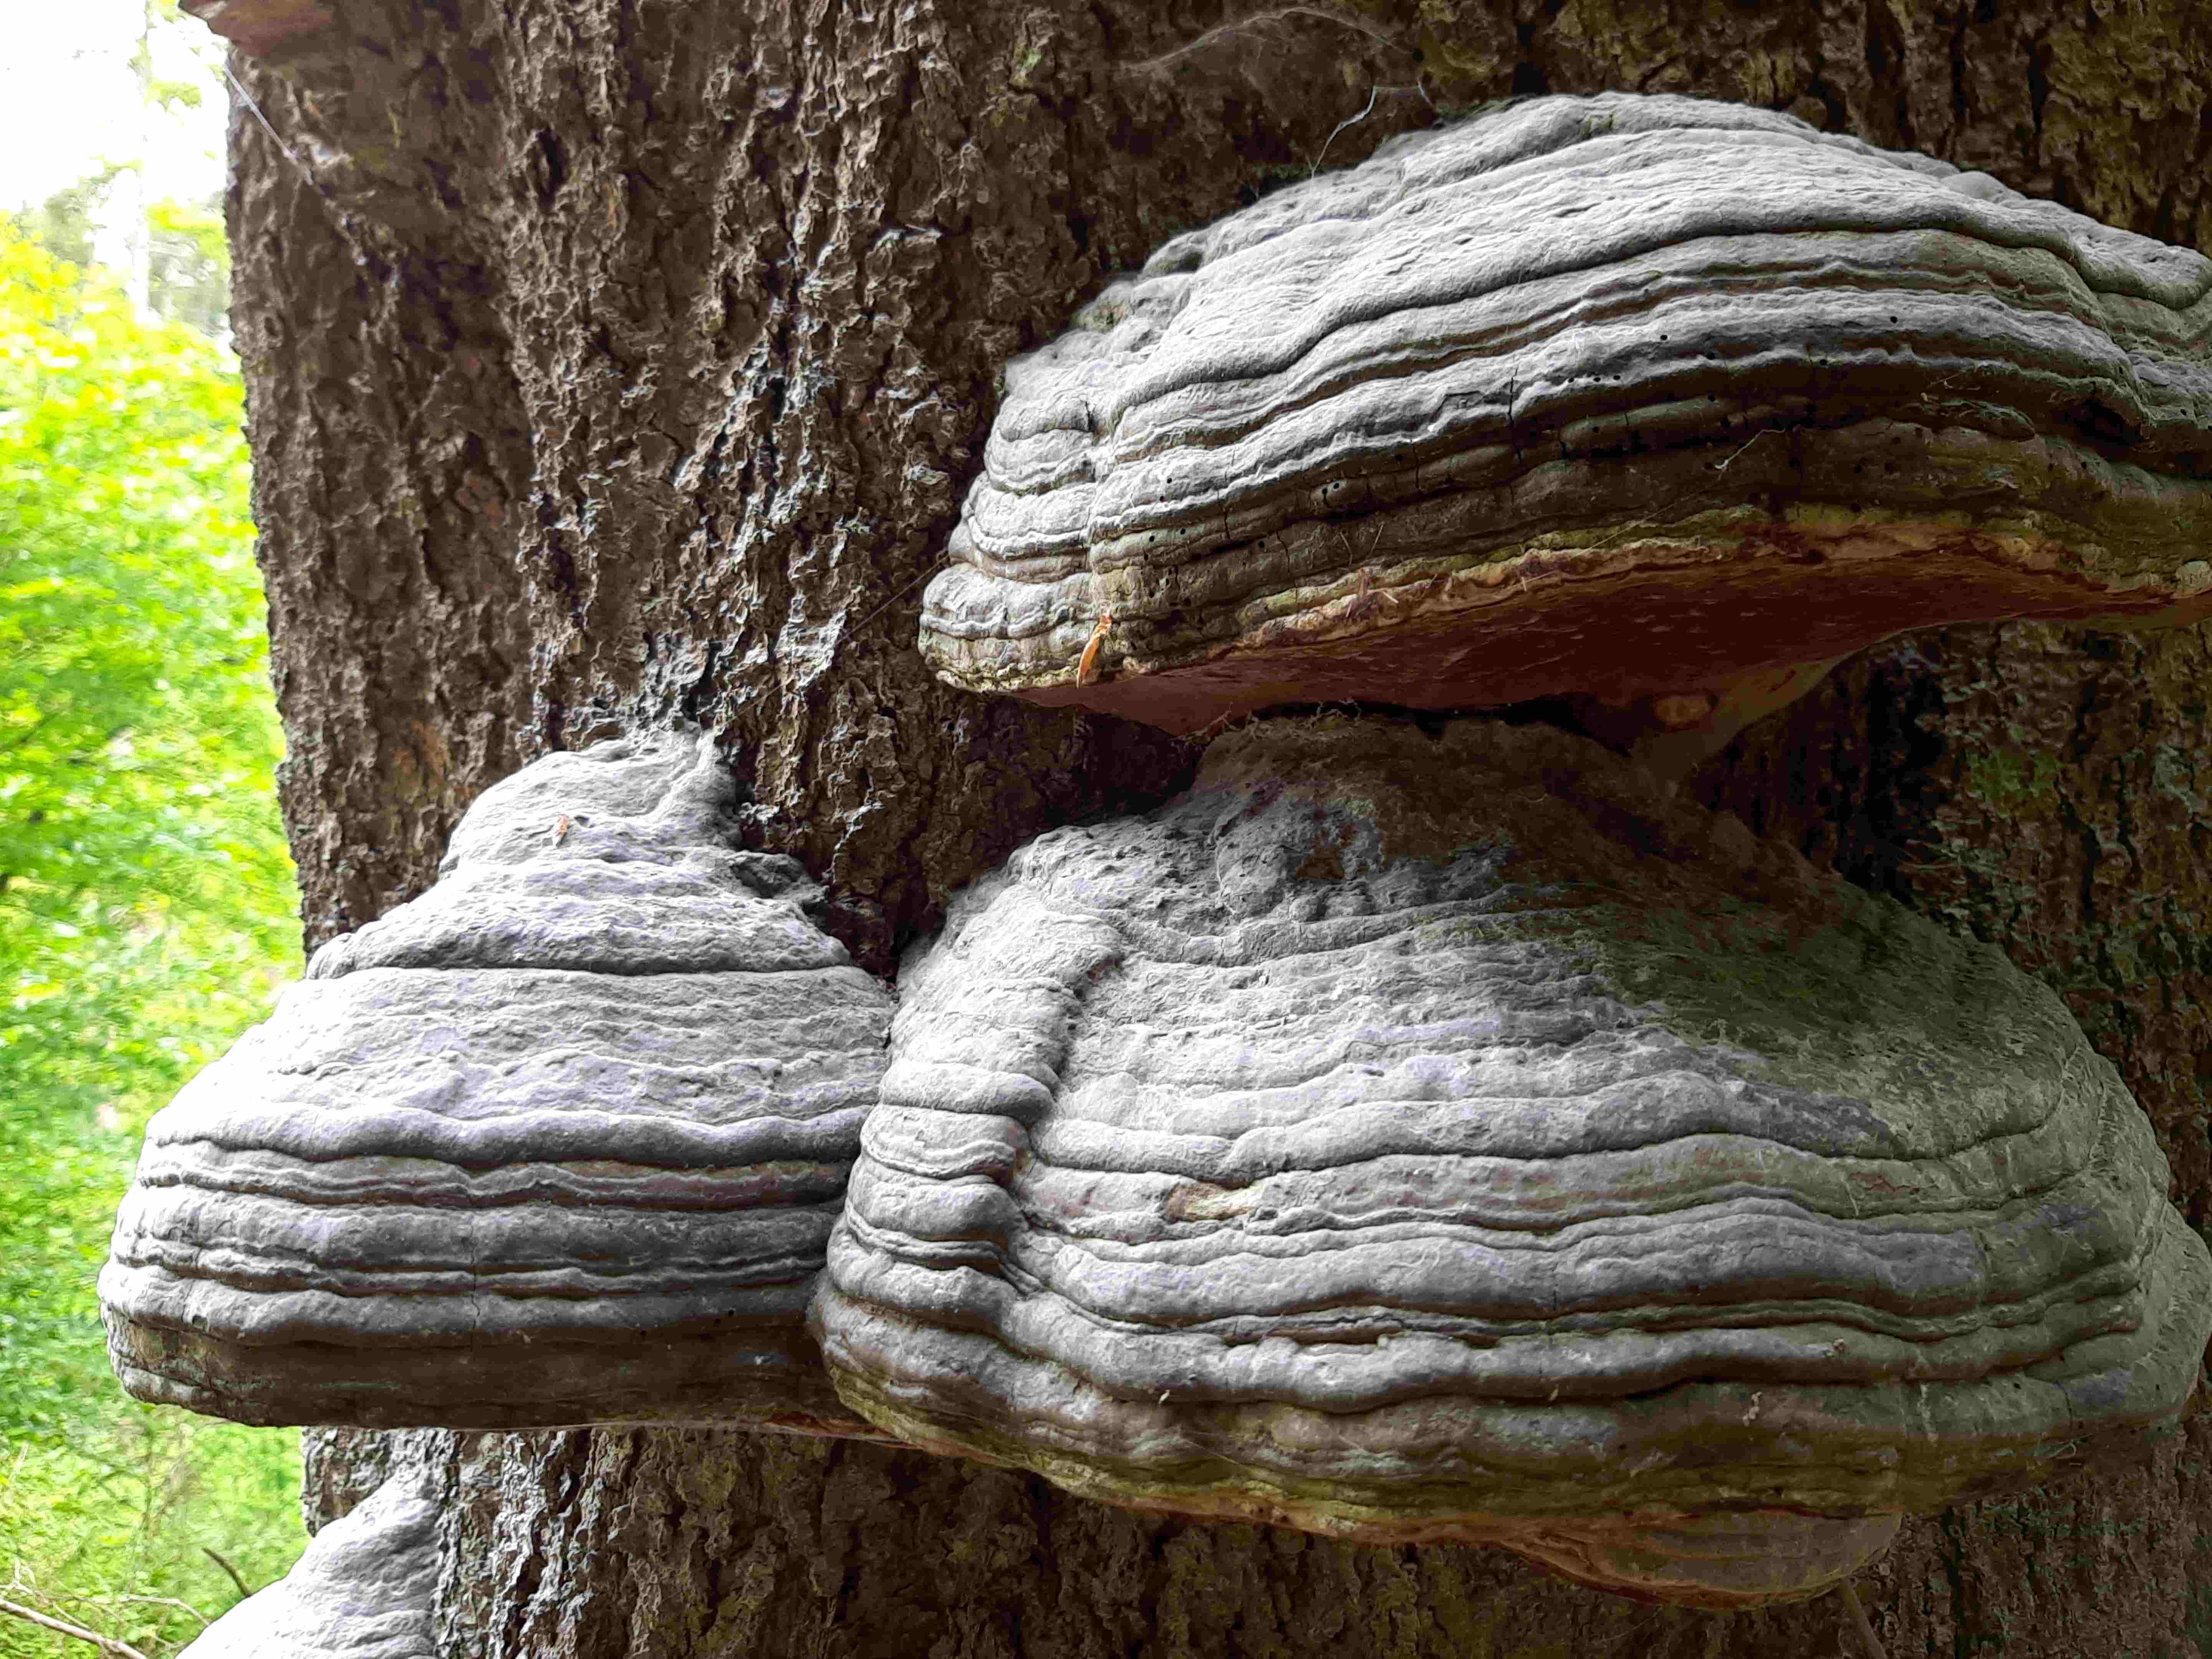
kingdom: Fungi
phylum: Basidiomycota
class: Agaricomycetes
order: Polyporales
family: Polyporaceae
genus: Fomes
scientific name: Fomes fomentarius
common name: tøndersvamp
